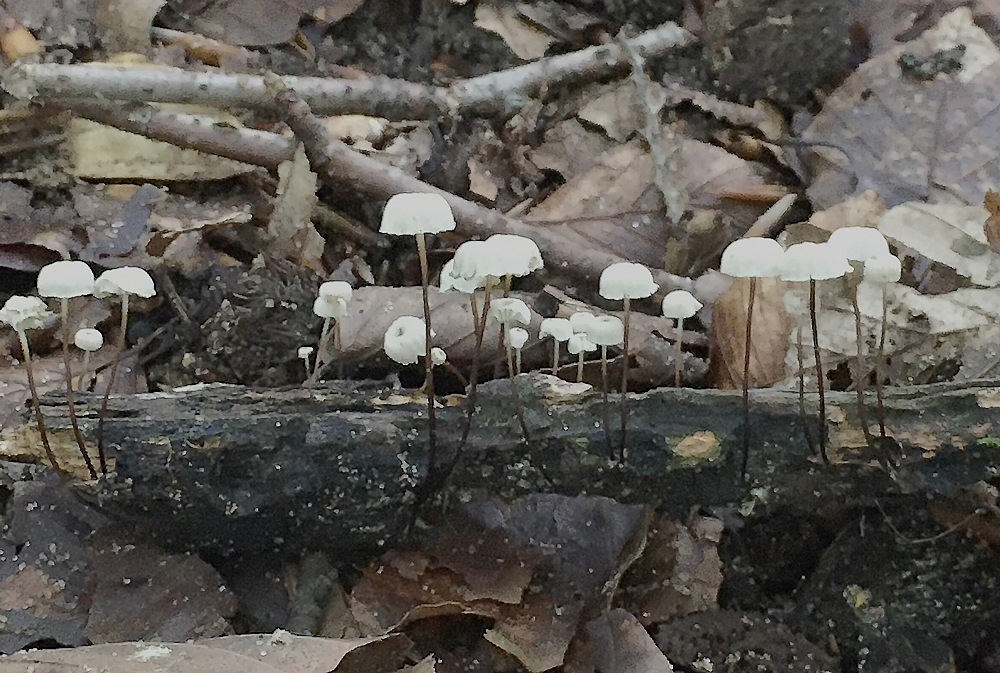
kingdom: Fungi
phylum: Basidiomycota
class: Agaricomycetes
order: Agaricales
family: Marasmiaceae
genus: Marasmius
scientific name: Marasmius rotula
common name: hjul-bruskhat
